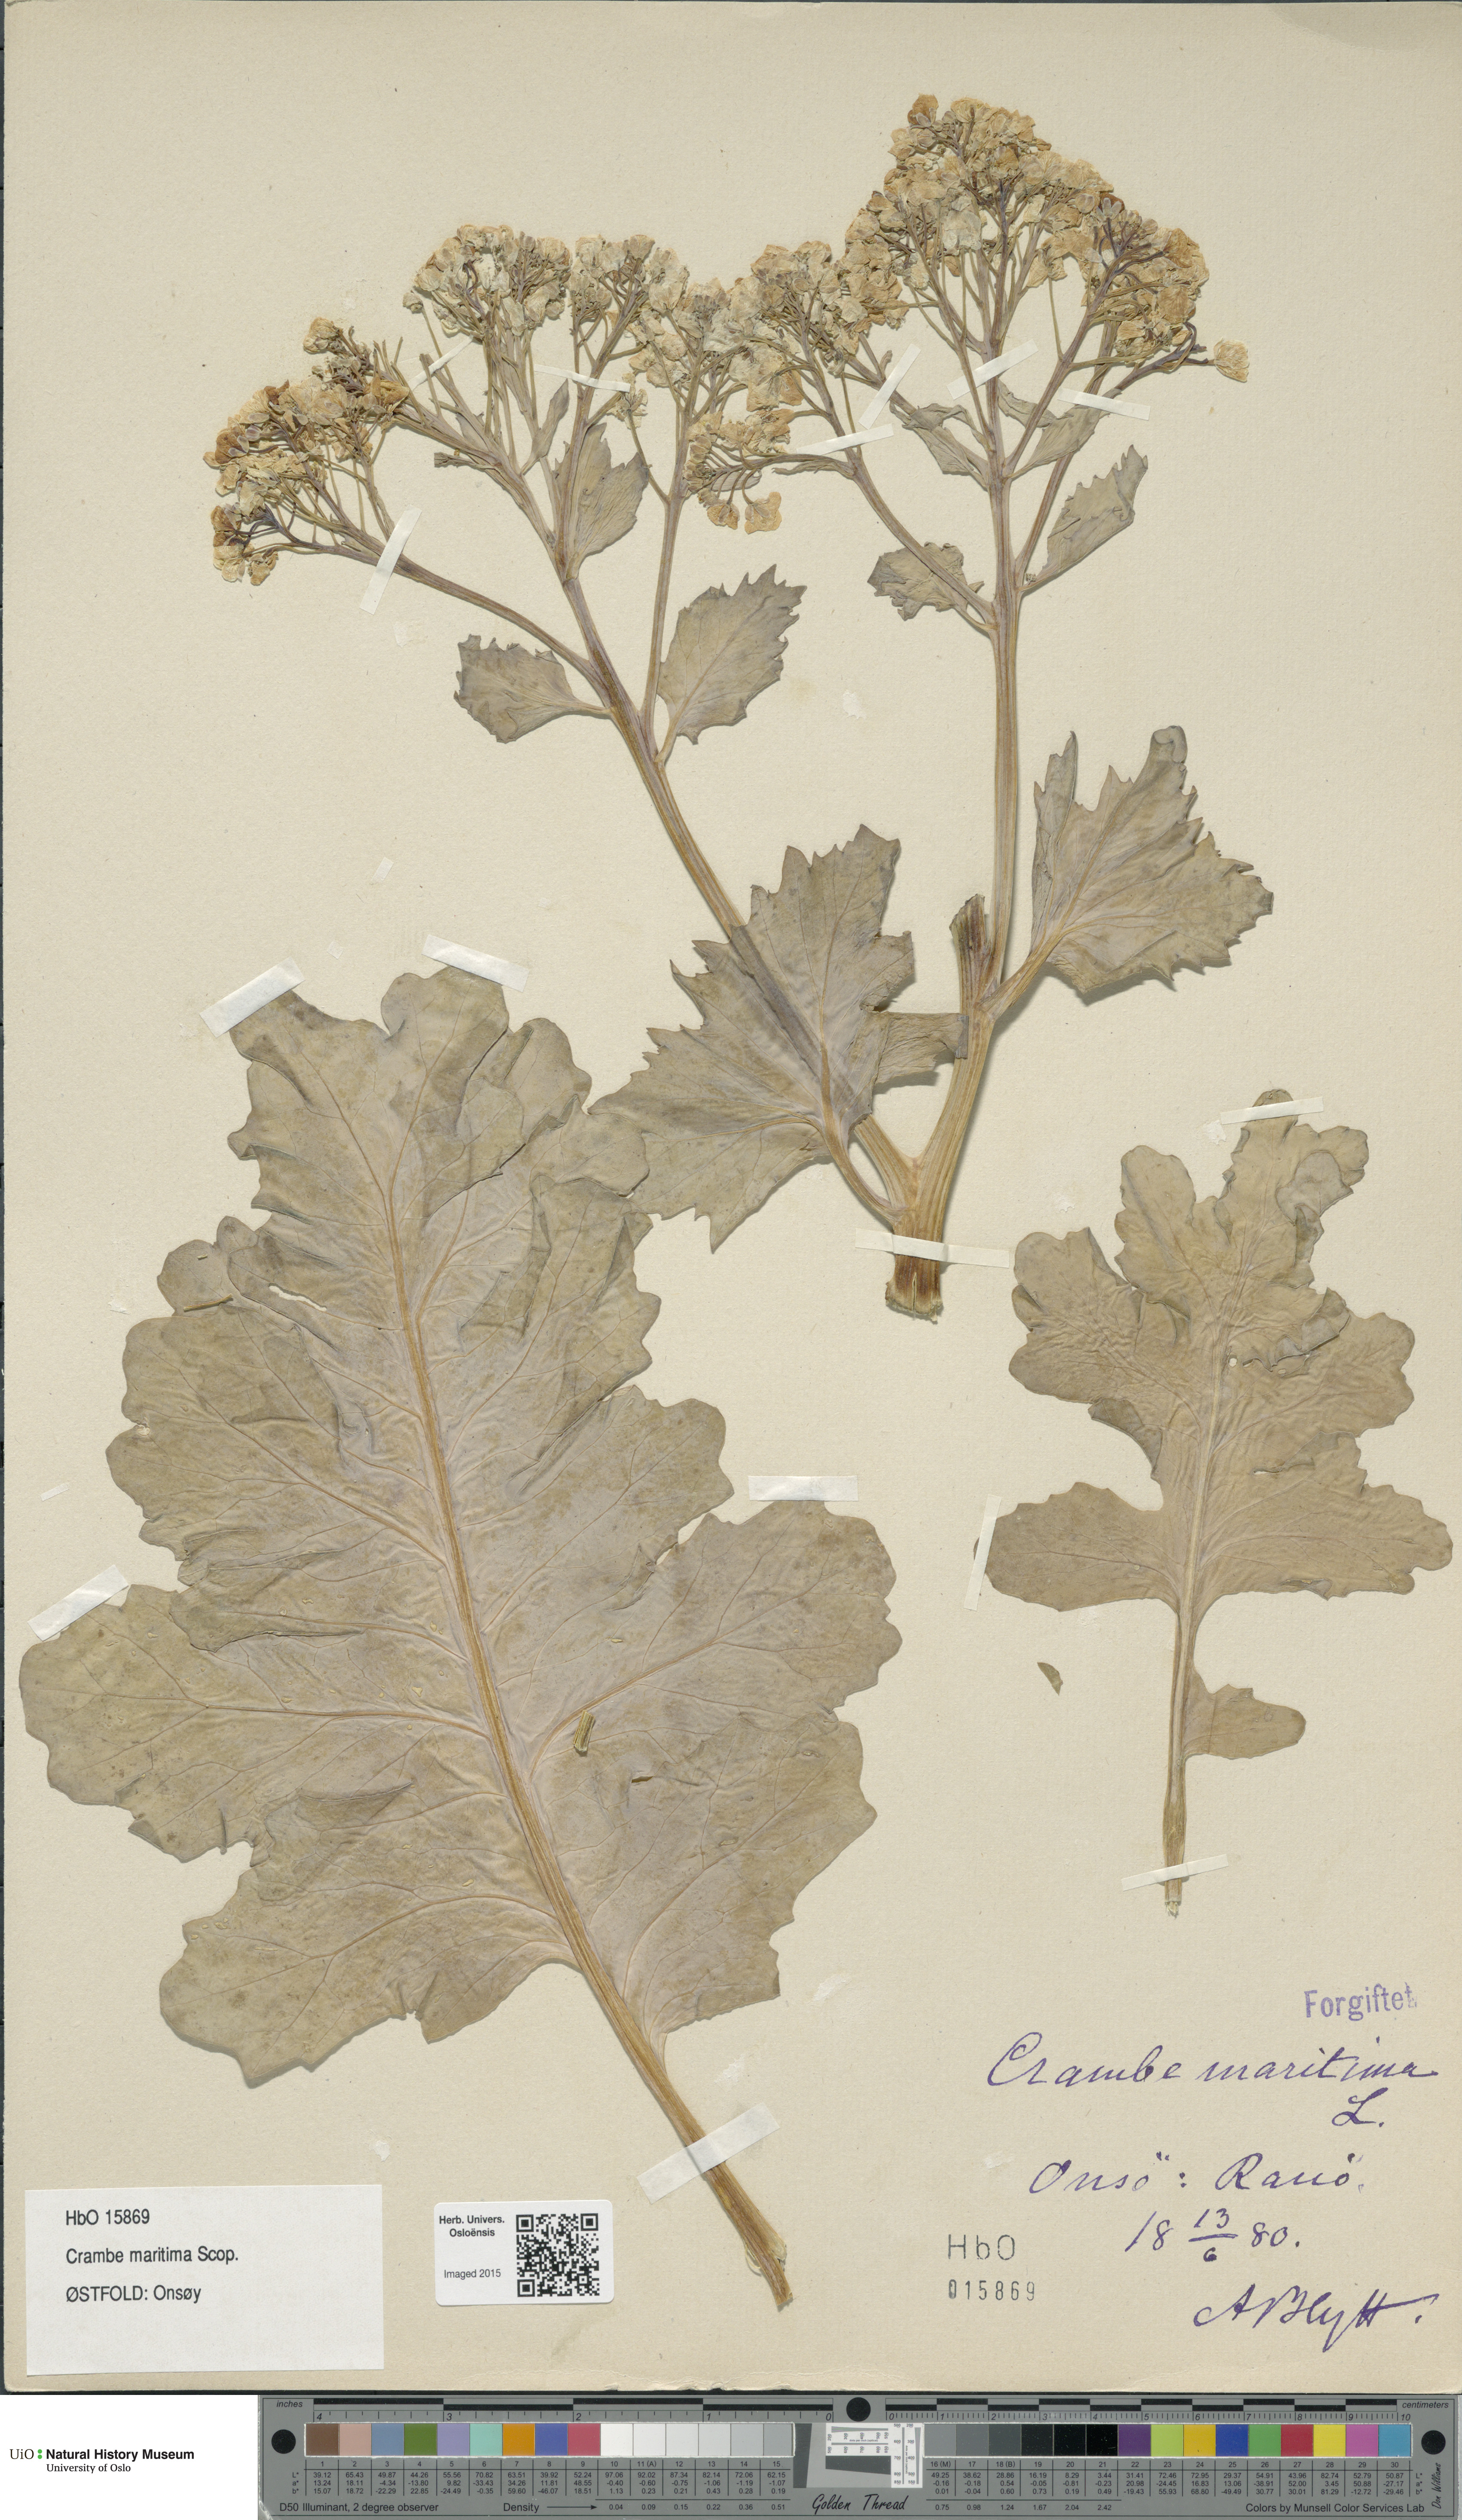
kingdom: Plantae
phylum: Tracheophyta
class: Magnoliopsida
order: Brassicales
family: Brassicaceae
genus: Crambe
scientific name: Crambe maritima
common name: Sea-kale
